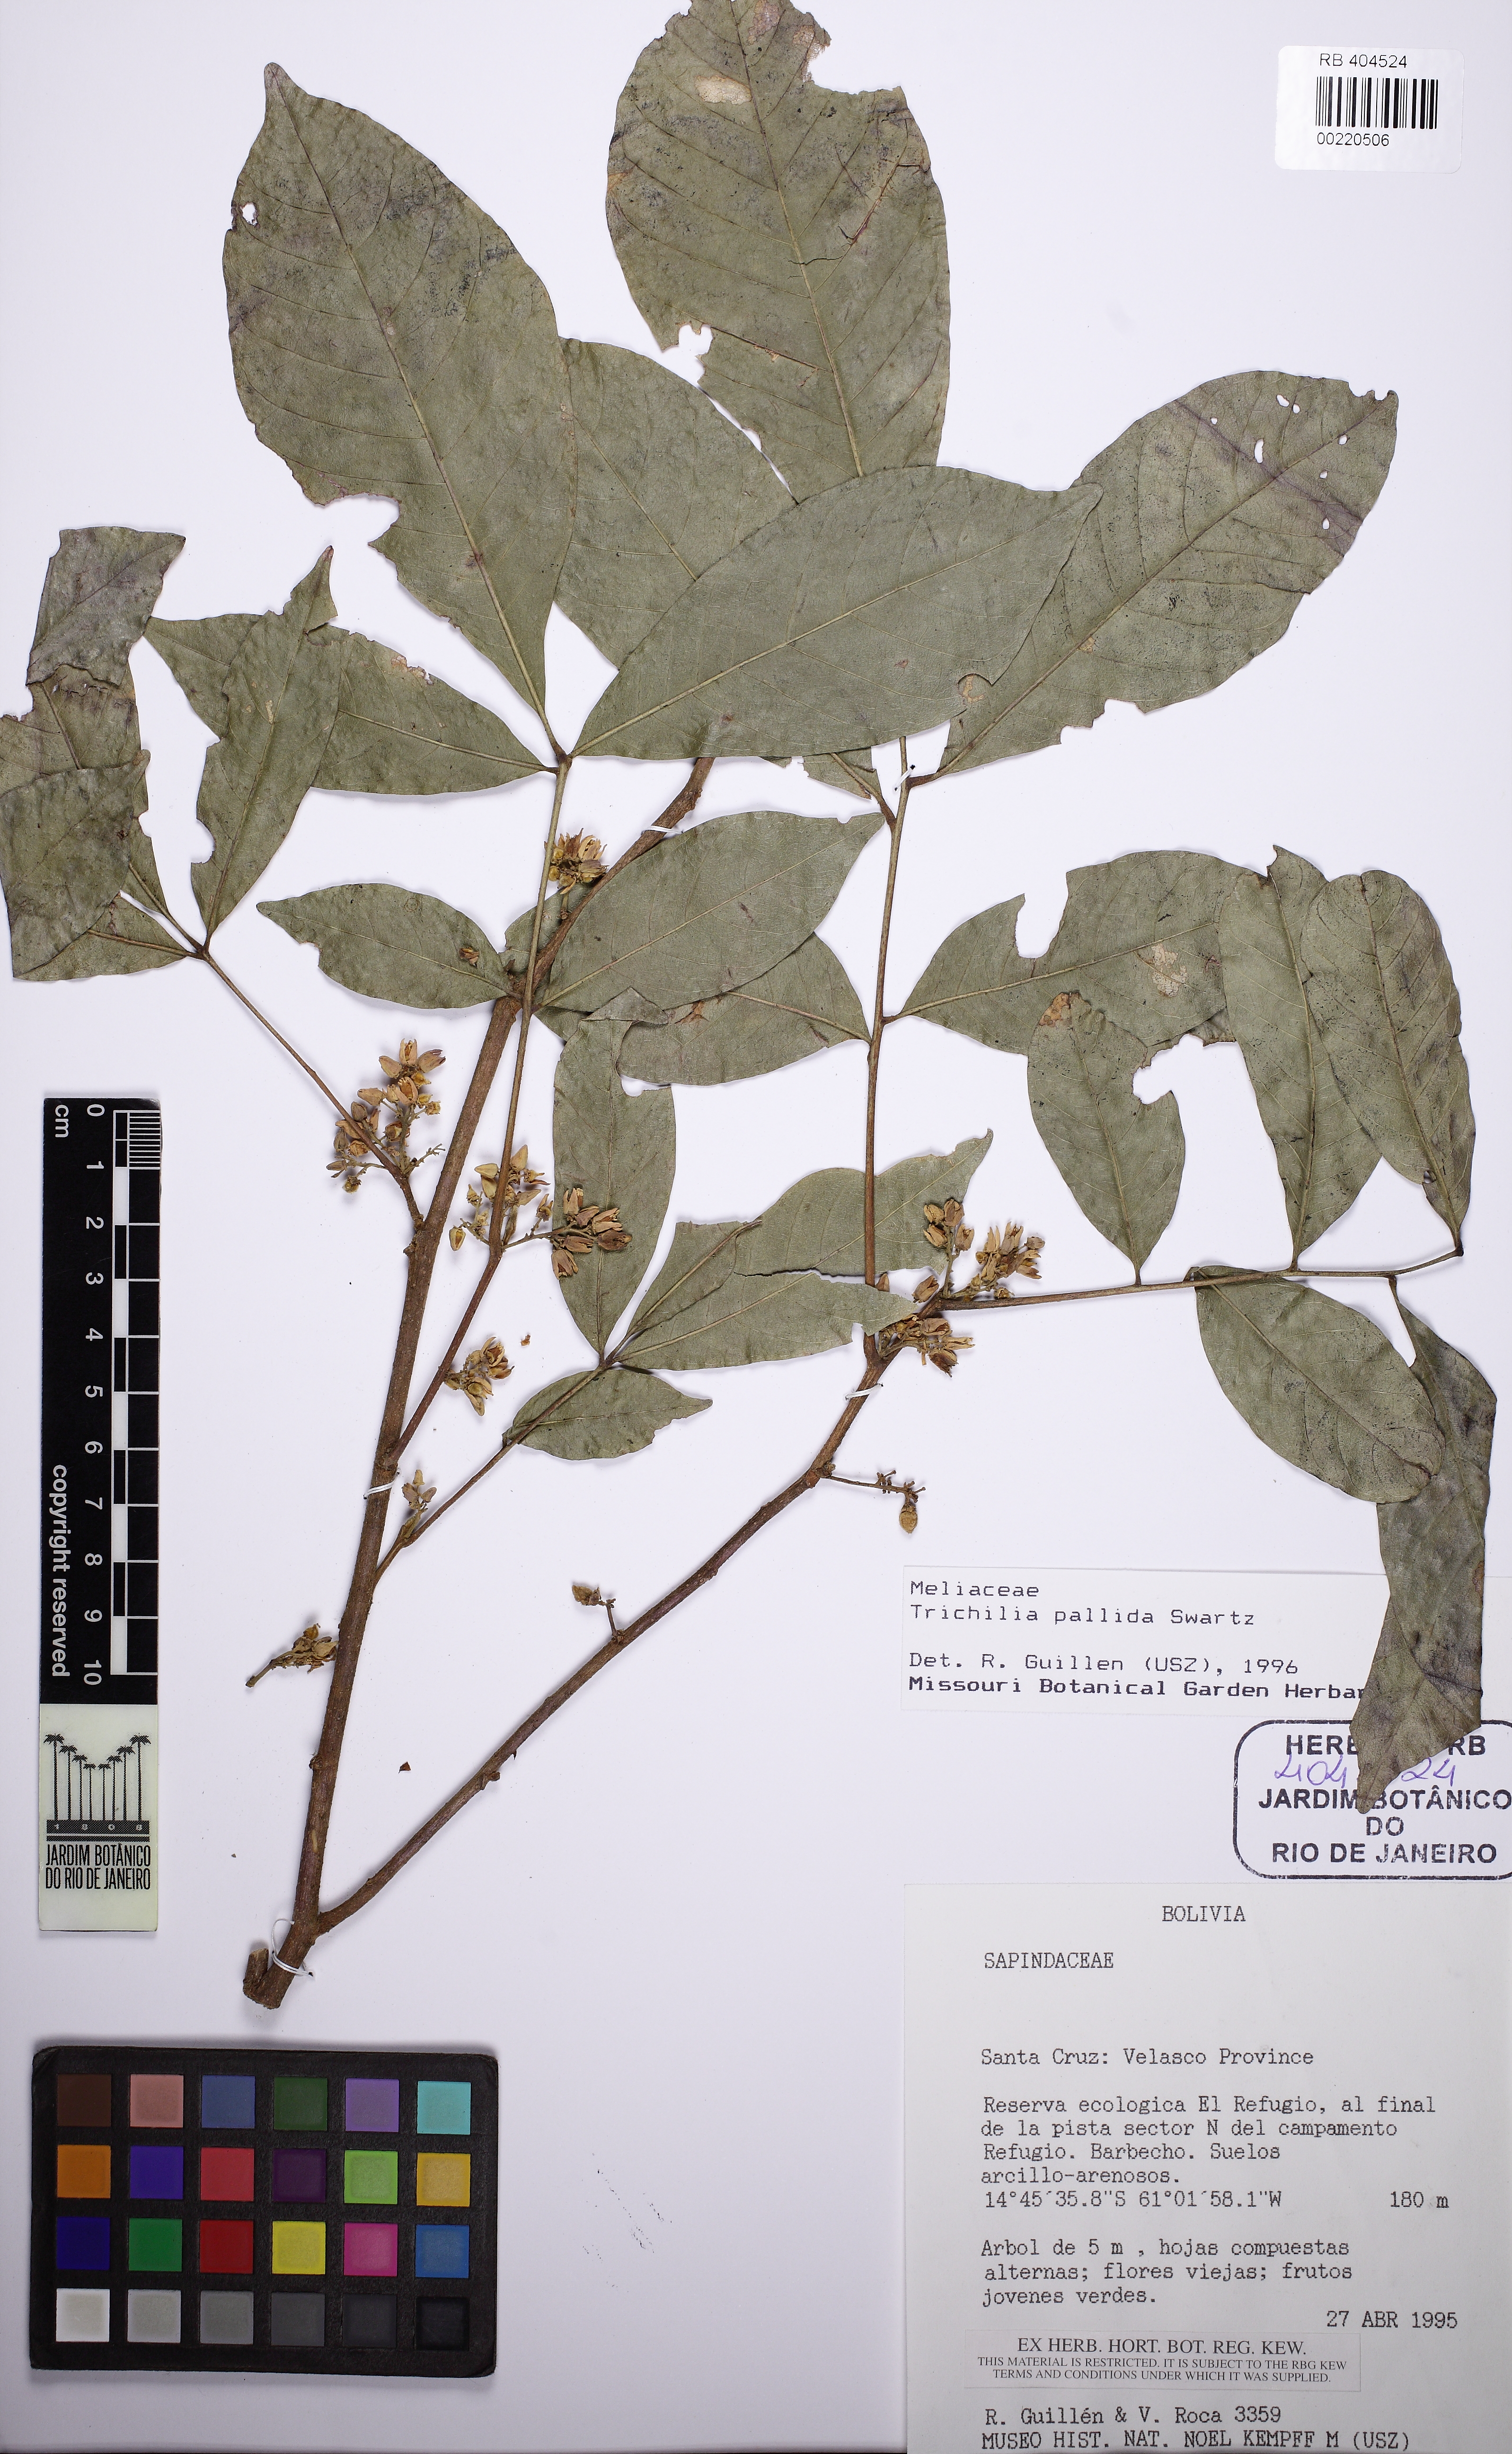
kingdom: Plantae
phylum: Tracheophyta
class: Magnoliopsida
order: Sapindales
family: Meliaceae
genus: Trichilia
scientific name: Trichilia pallida
